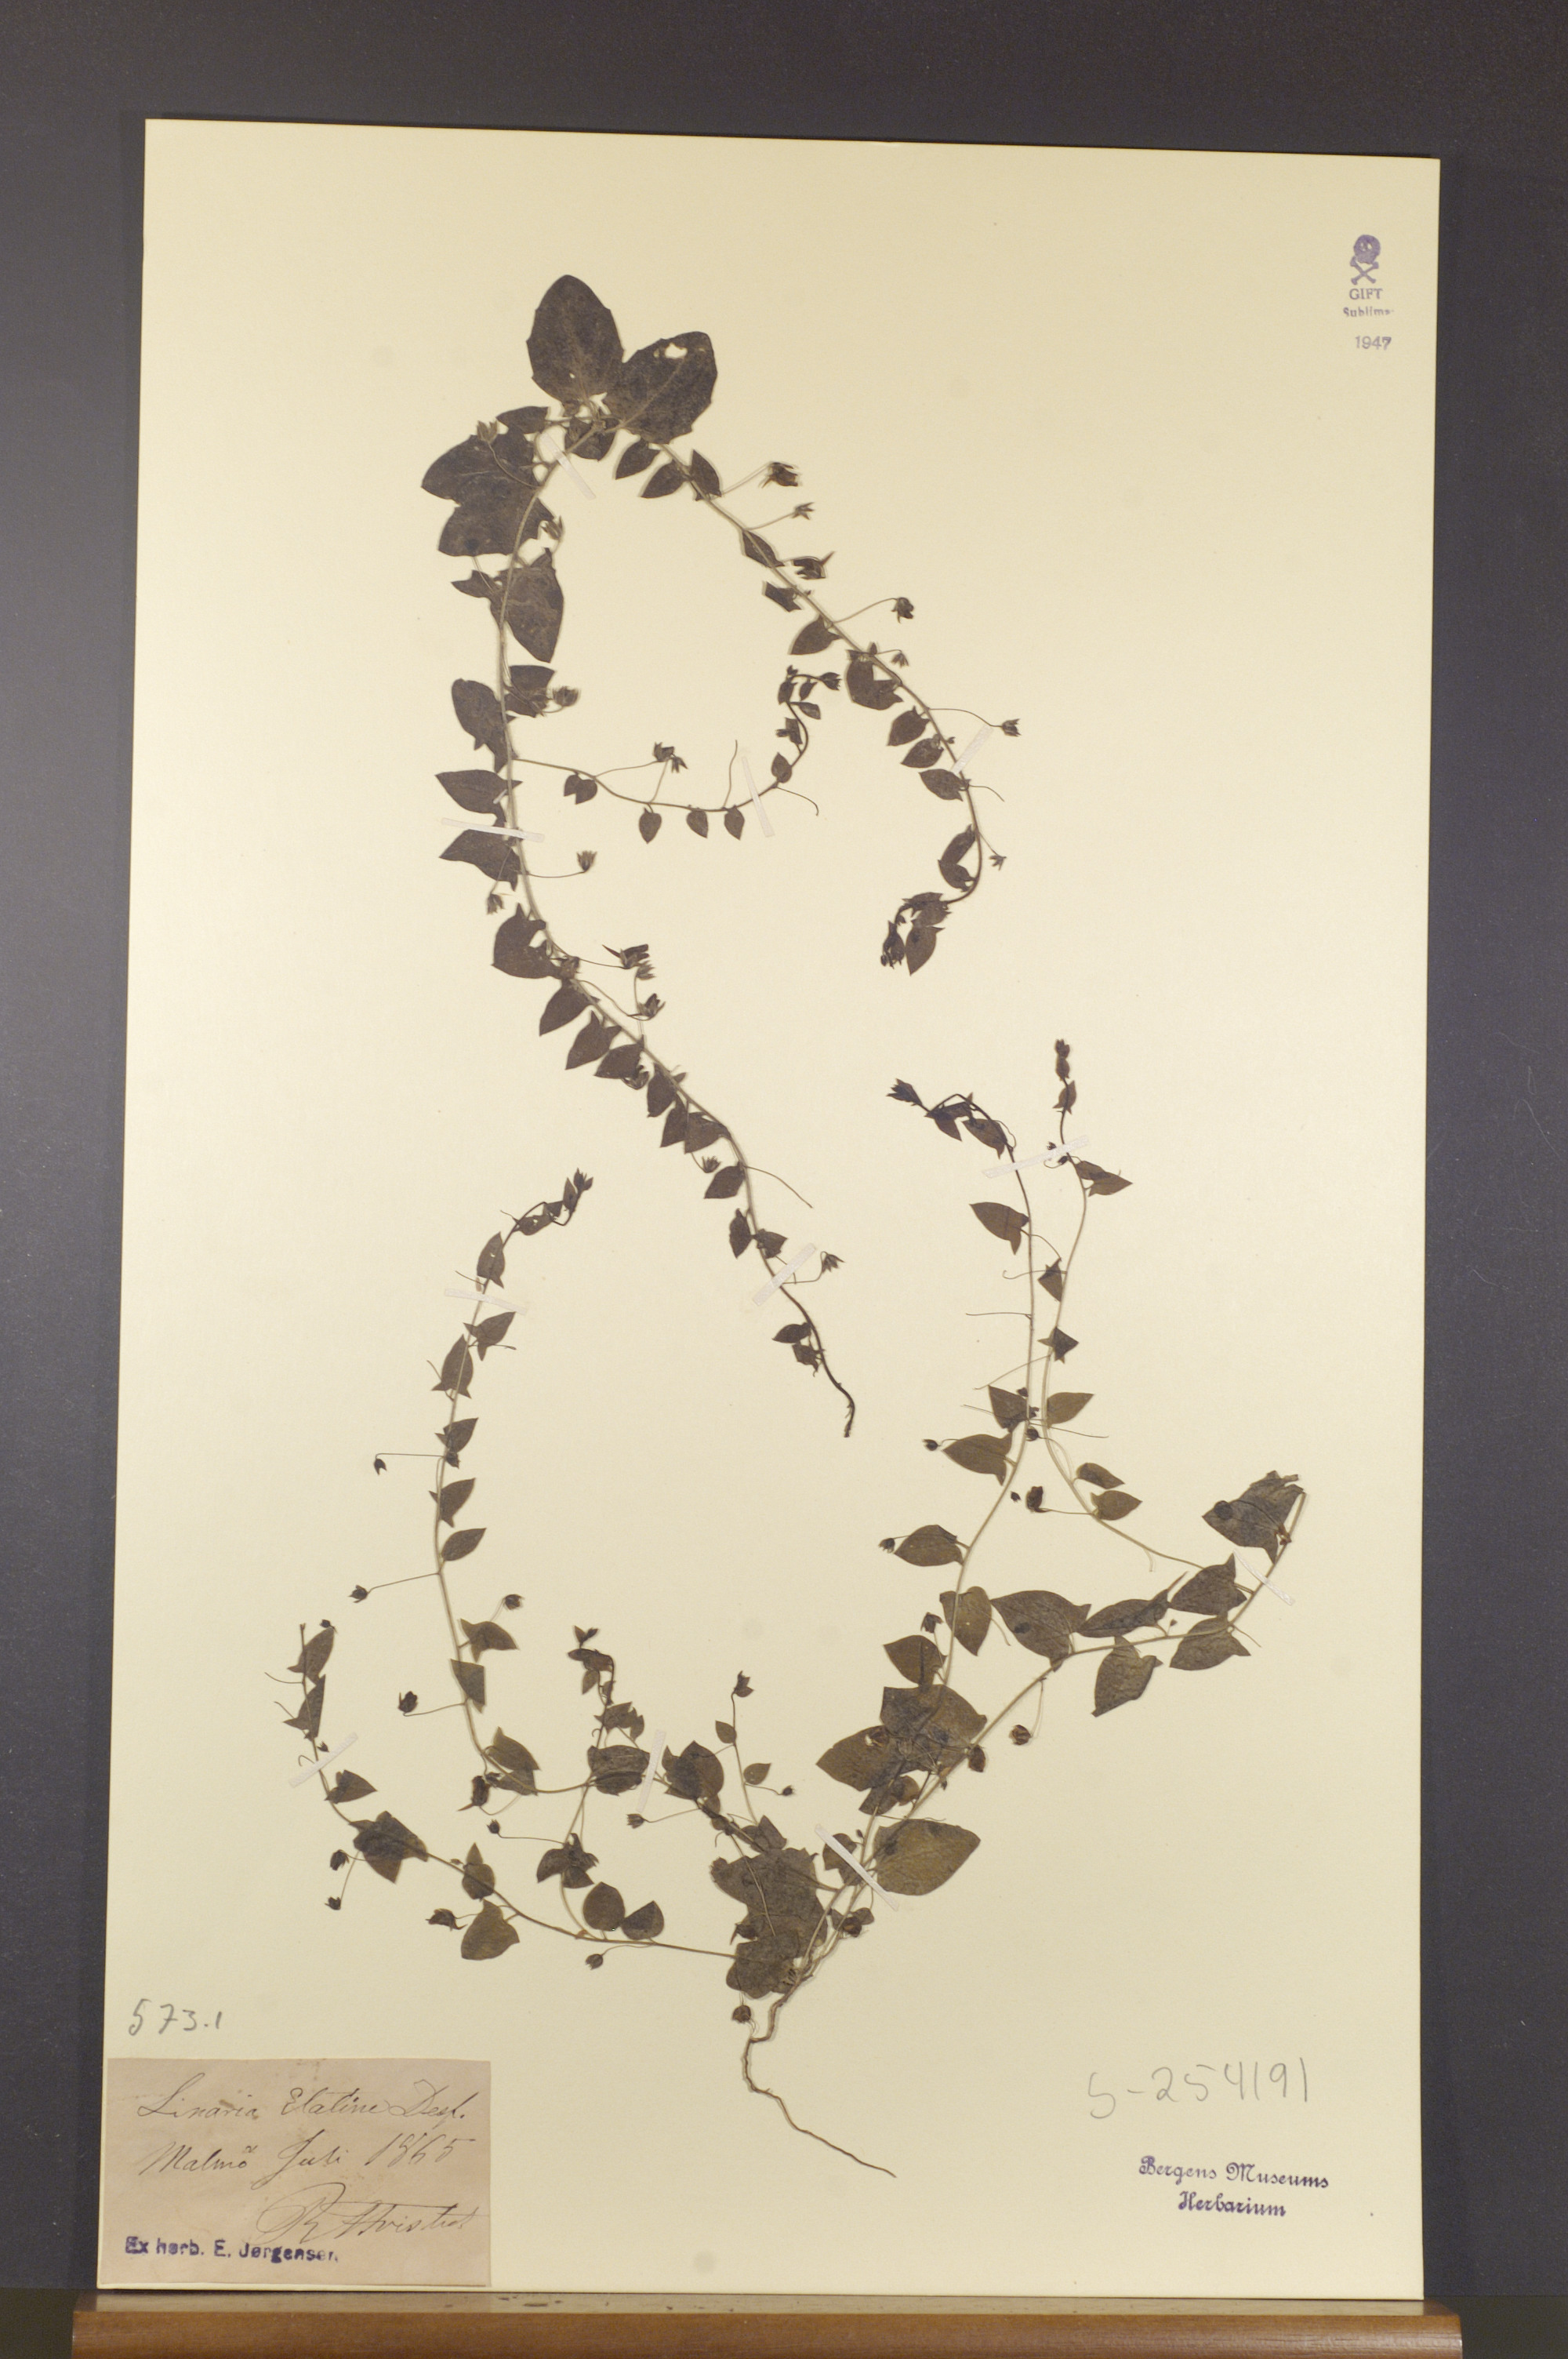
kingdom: Plantae
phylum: Tracheophyta
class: Magnoliopsida
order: Lamiales
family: Plantaginaceae
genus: Kickxia
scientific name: Kickxia elatine
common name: Sharp-leaved fluellen
